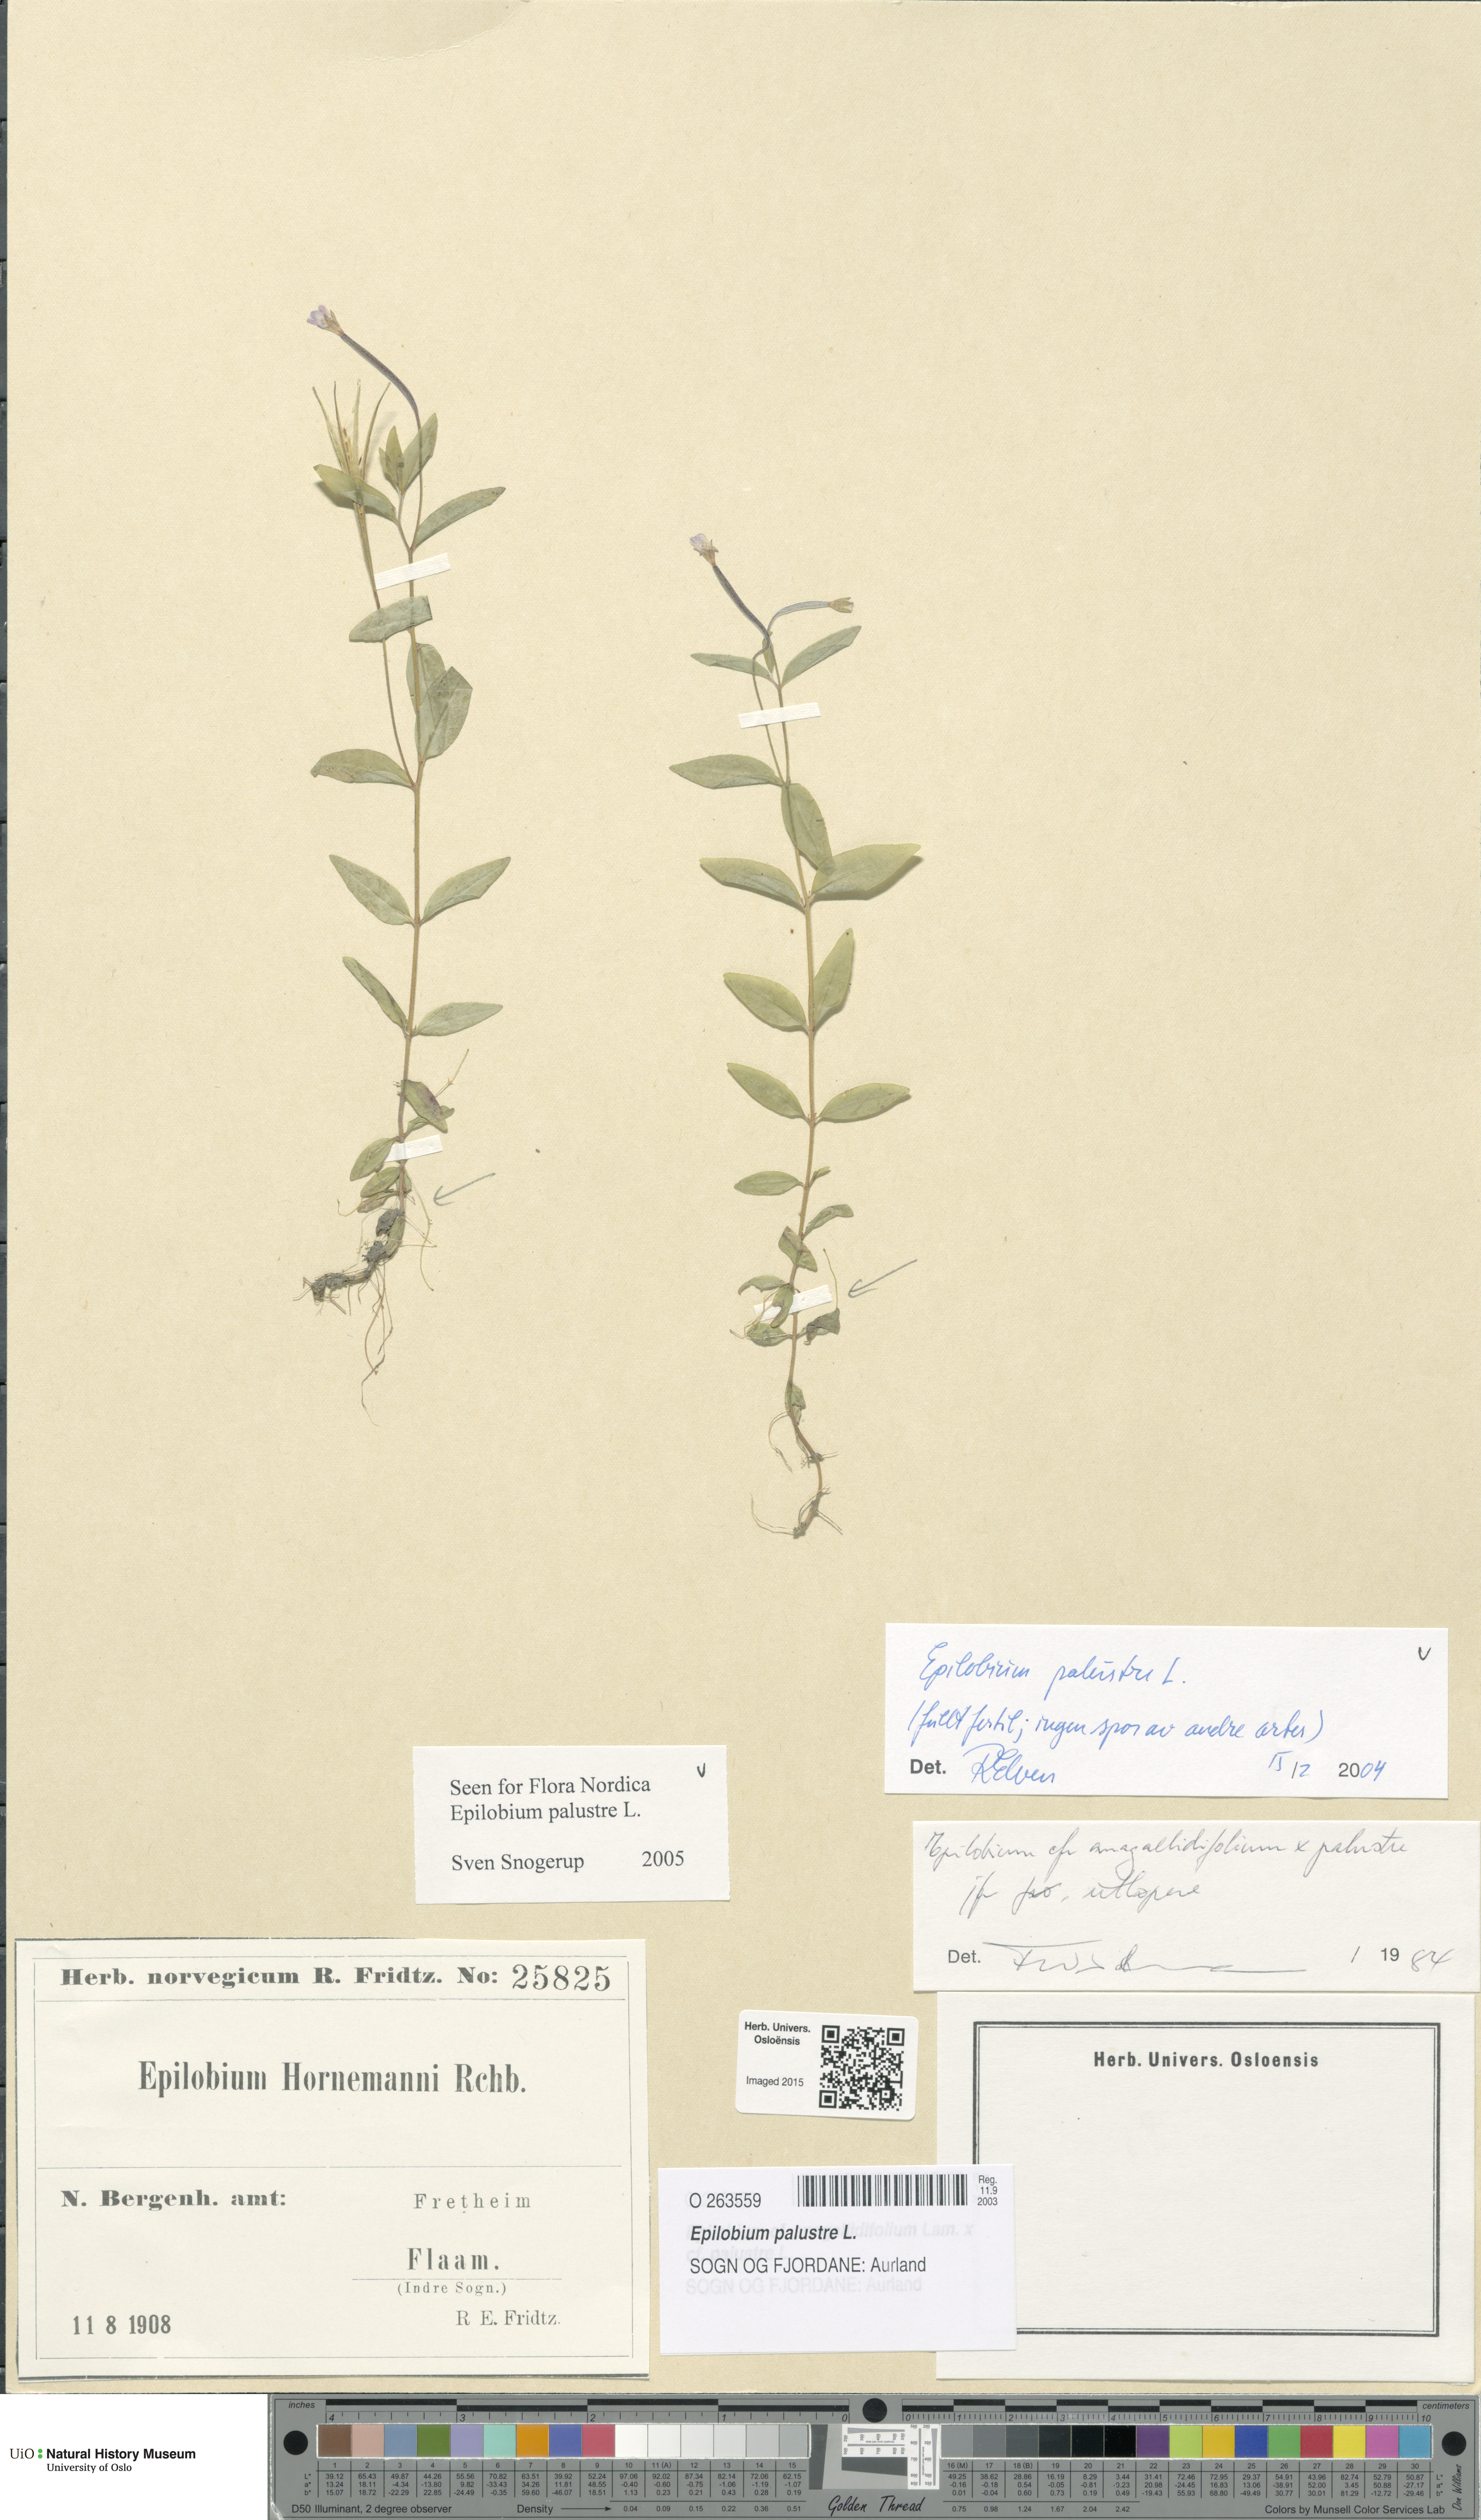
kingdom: Plantae
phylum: Tracheophyta
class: Magnoliopsida
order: Myrtales
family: Onagraceae
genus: Epilobium
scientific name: Epilobium palustre
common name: Marsh willowherb
